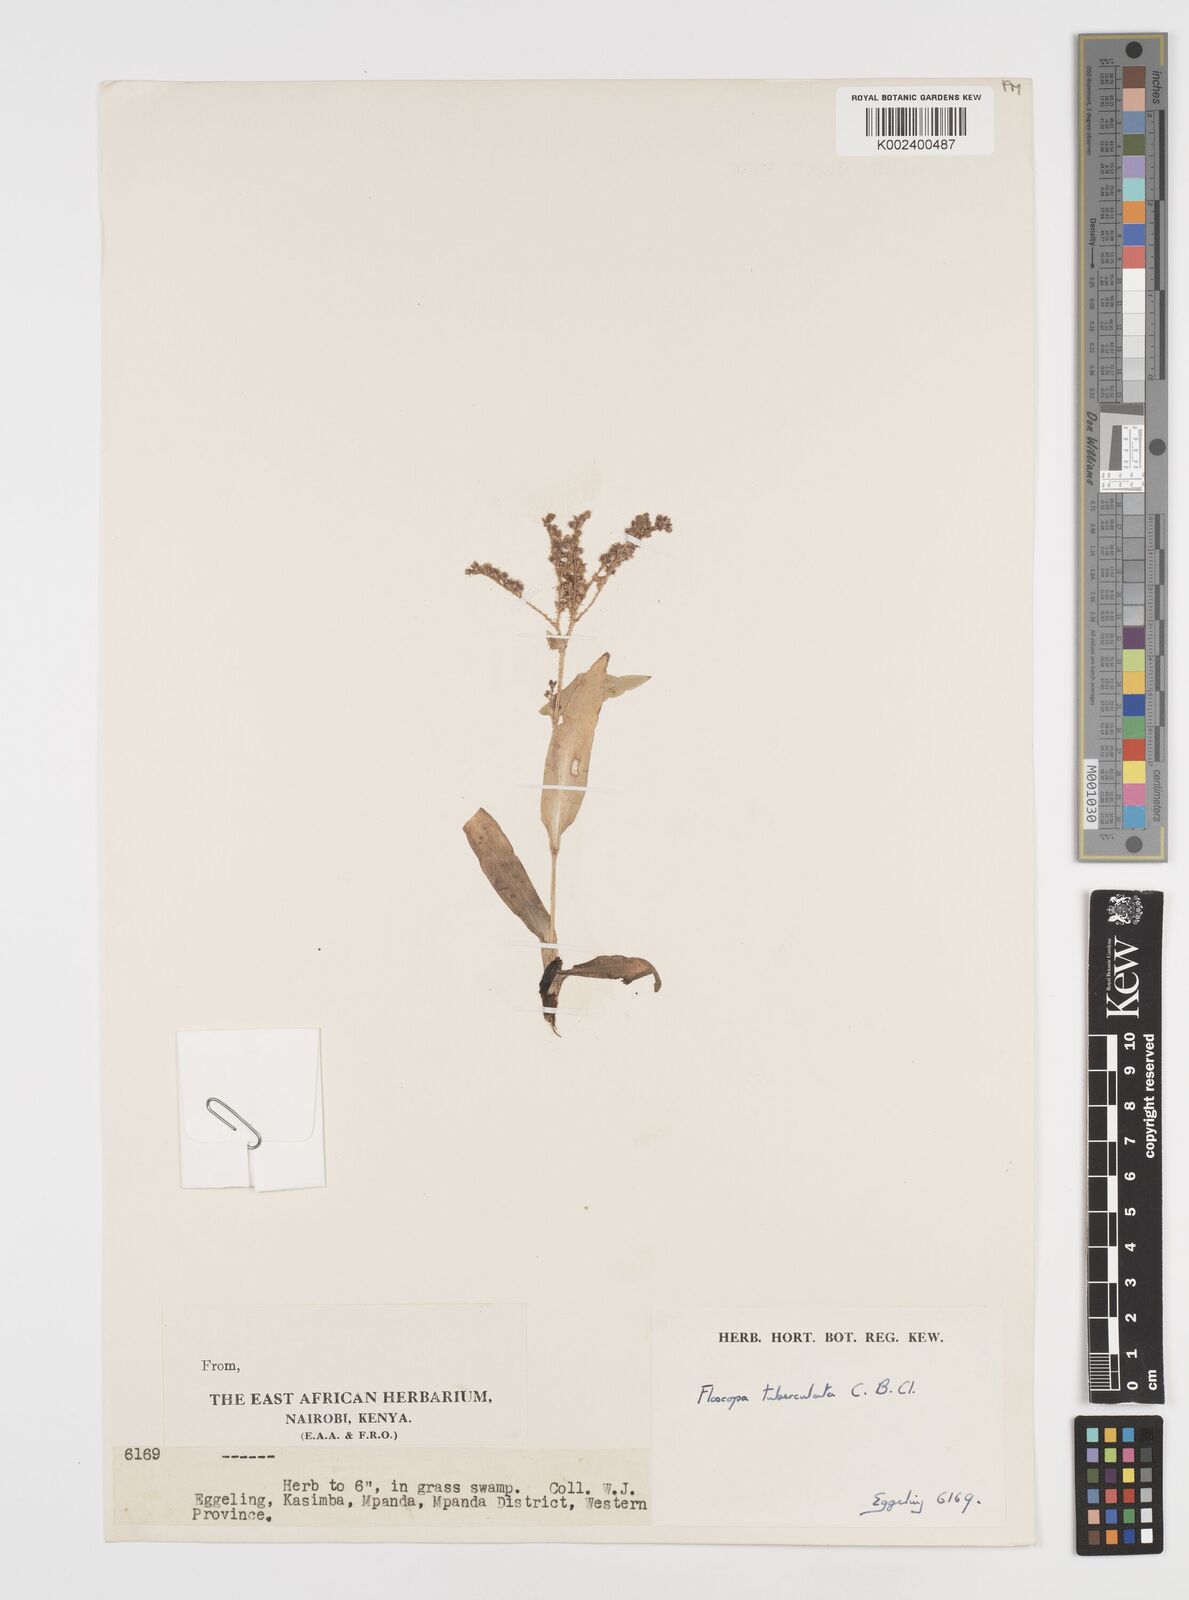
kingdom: Plantae
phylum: Tracheophyta
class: Liliopsida
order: Commelinales
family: Commelinaceae
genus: Floscopa
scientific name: Floscopa tuberculata
